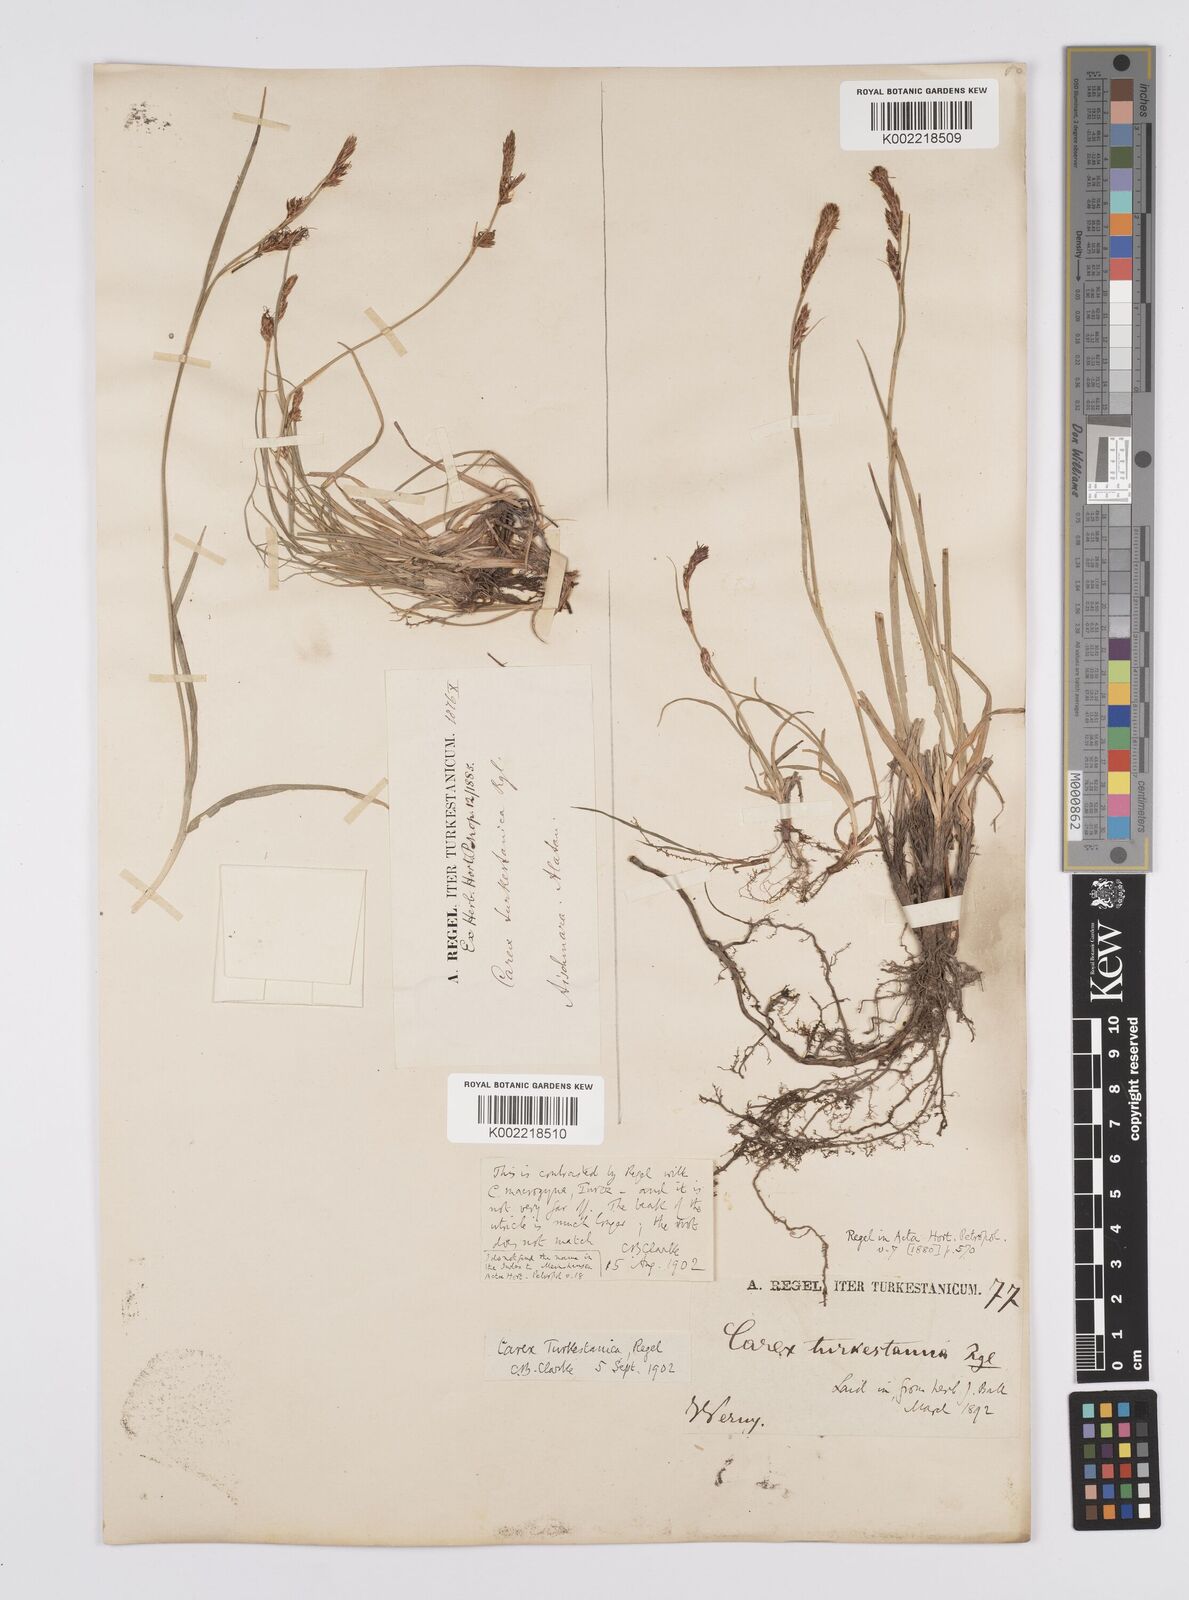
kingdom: Plantae
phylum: Tracheophyta
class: Liliopsida
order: Poales
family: Cyperaceae
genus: Carex
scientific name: Carex liparocarpos
